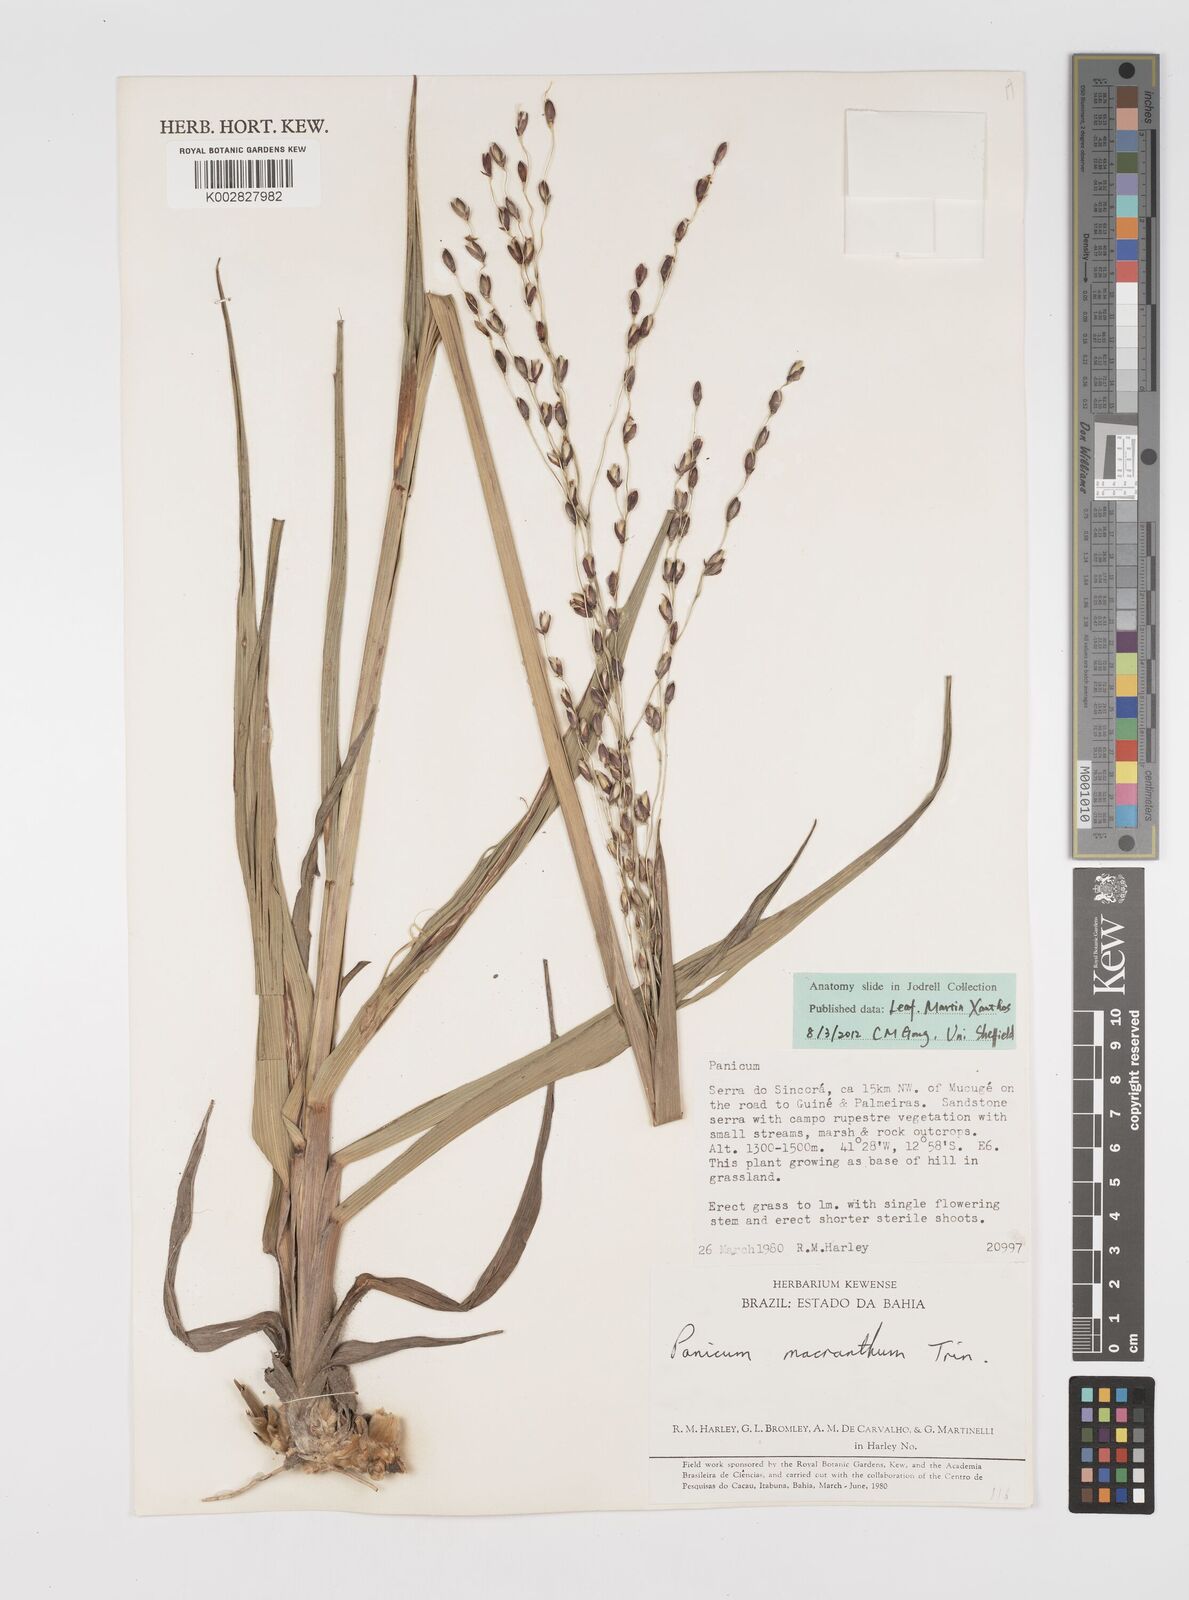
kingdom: Plantae
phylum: Tracheophyta
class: Liliopsida
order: Poales
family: Poaceae
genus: Oncorachis
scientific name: Oncorachis ramosa
